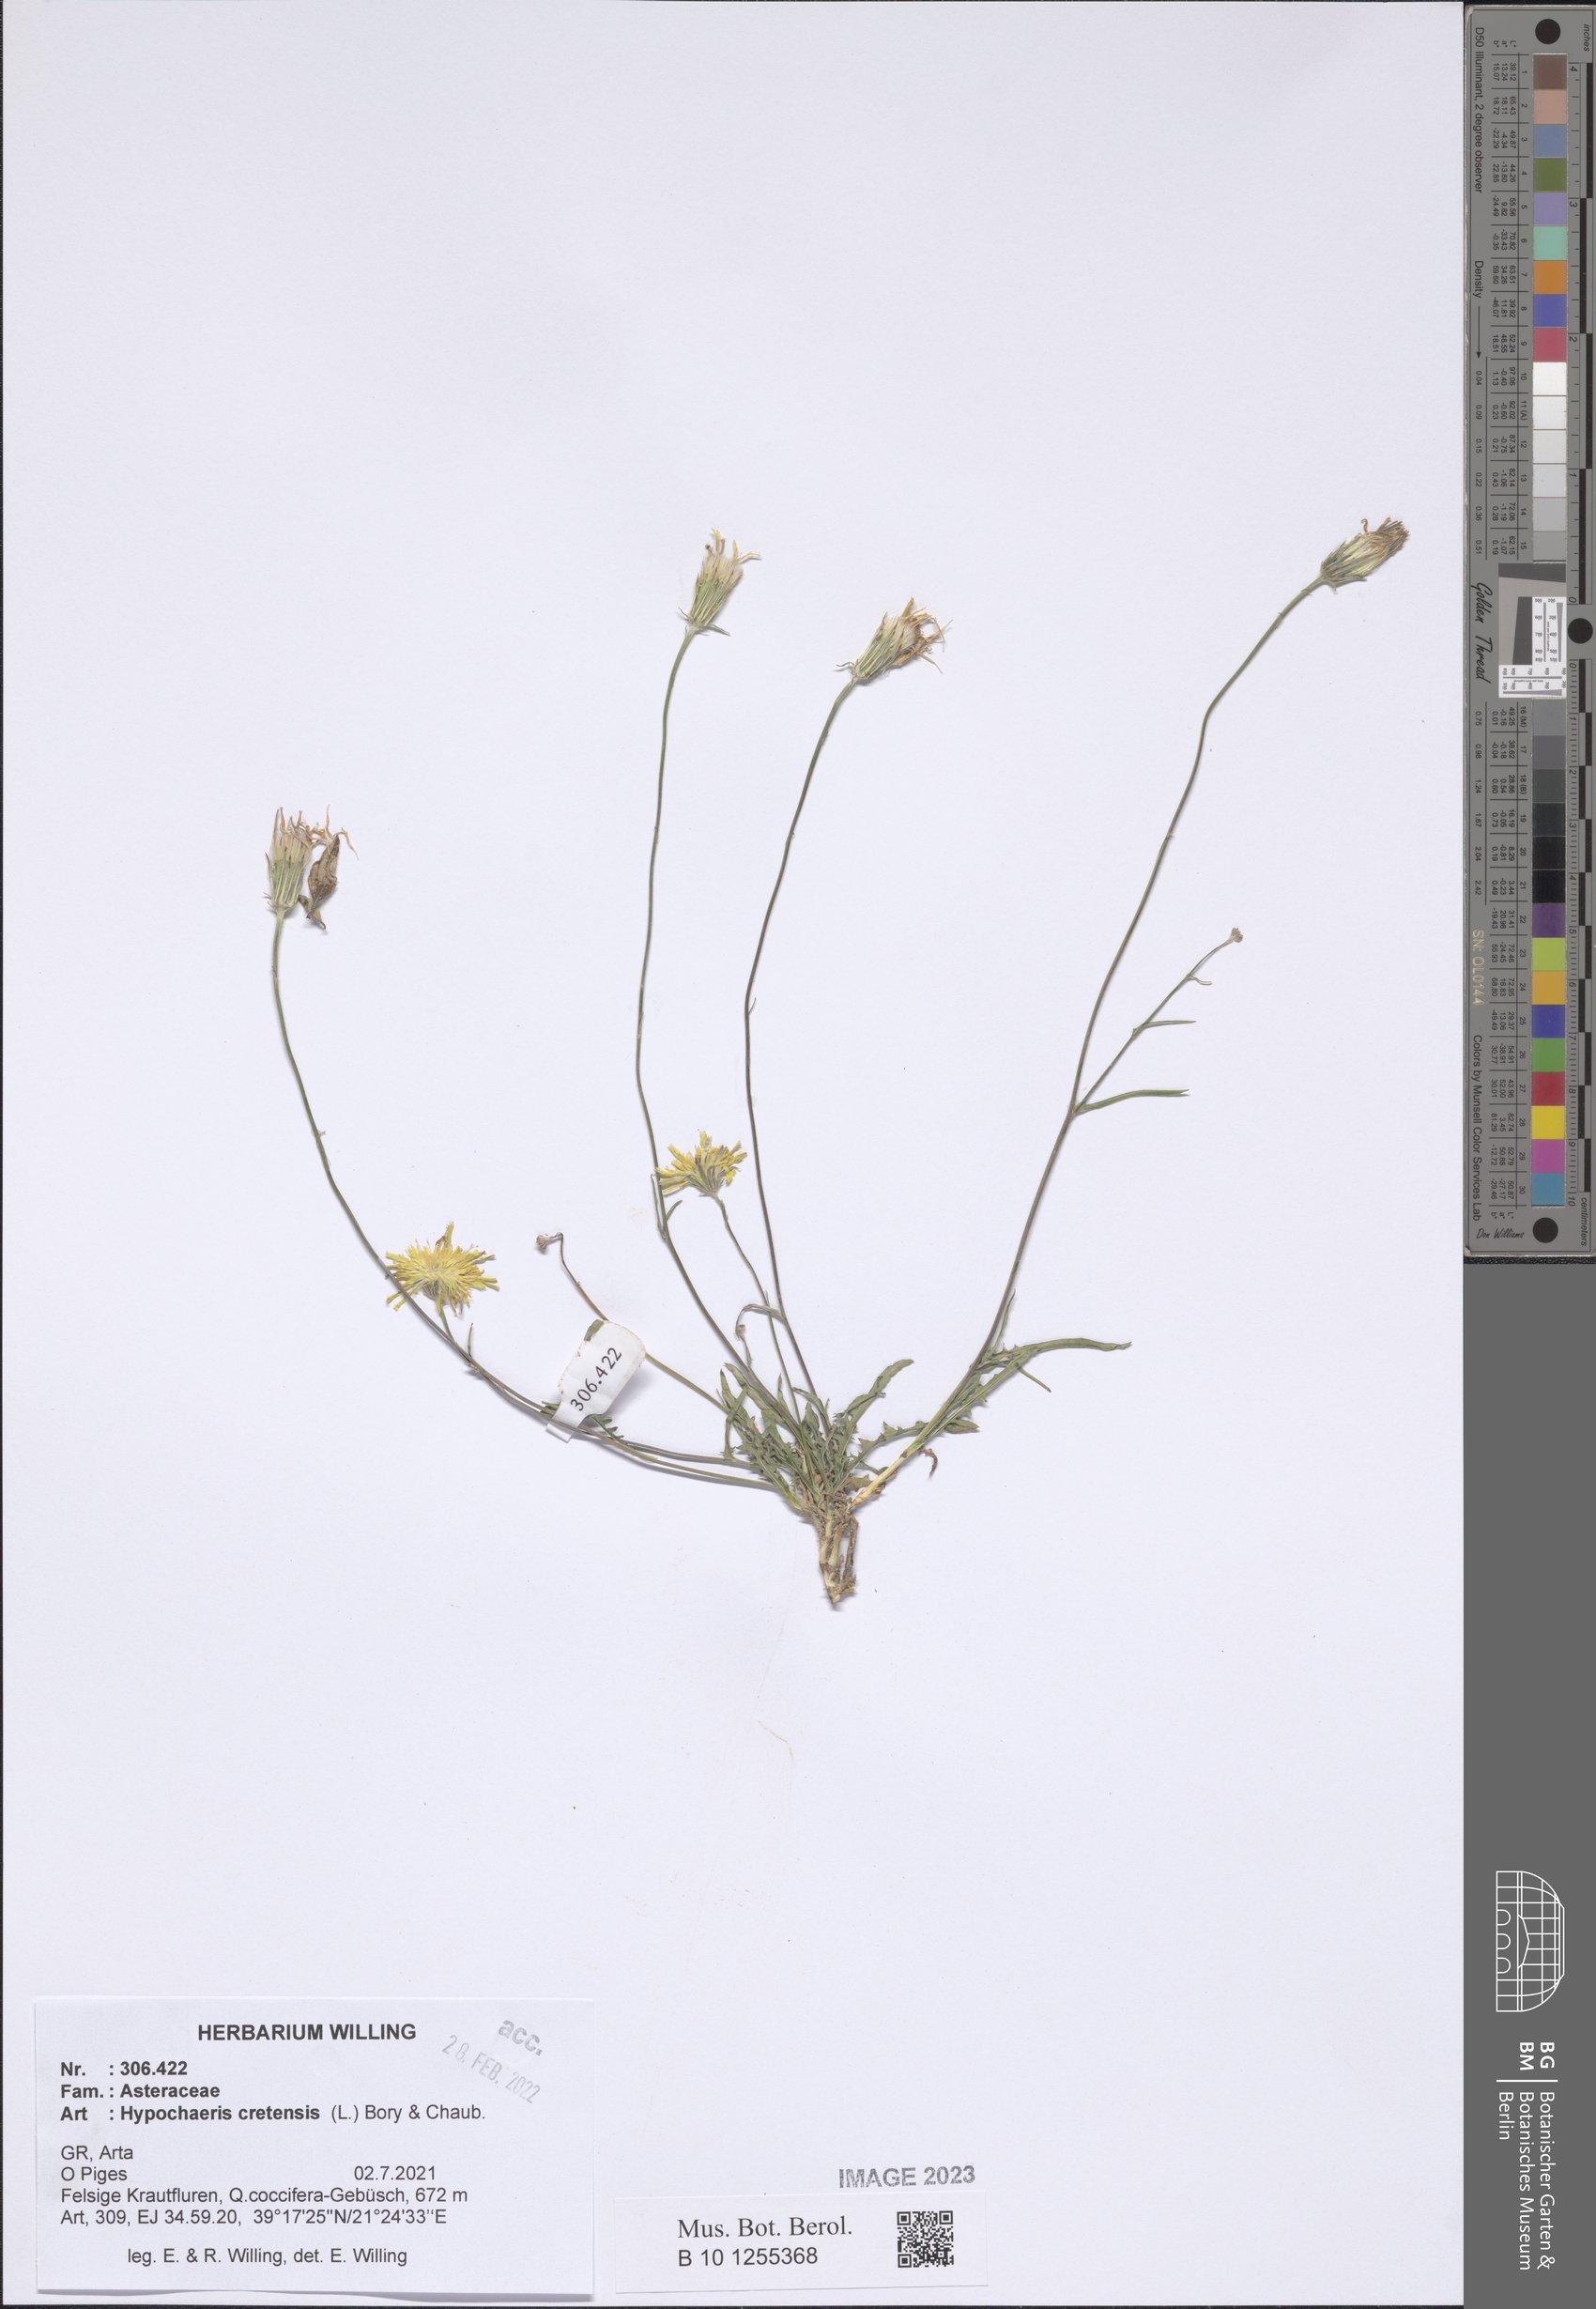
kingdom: Plantae
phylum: Tracheophyta
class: Magnoliopsida
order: Asterales
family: Asteraceae
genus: Hypochaeris
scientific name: Hypochaeris cretensis
